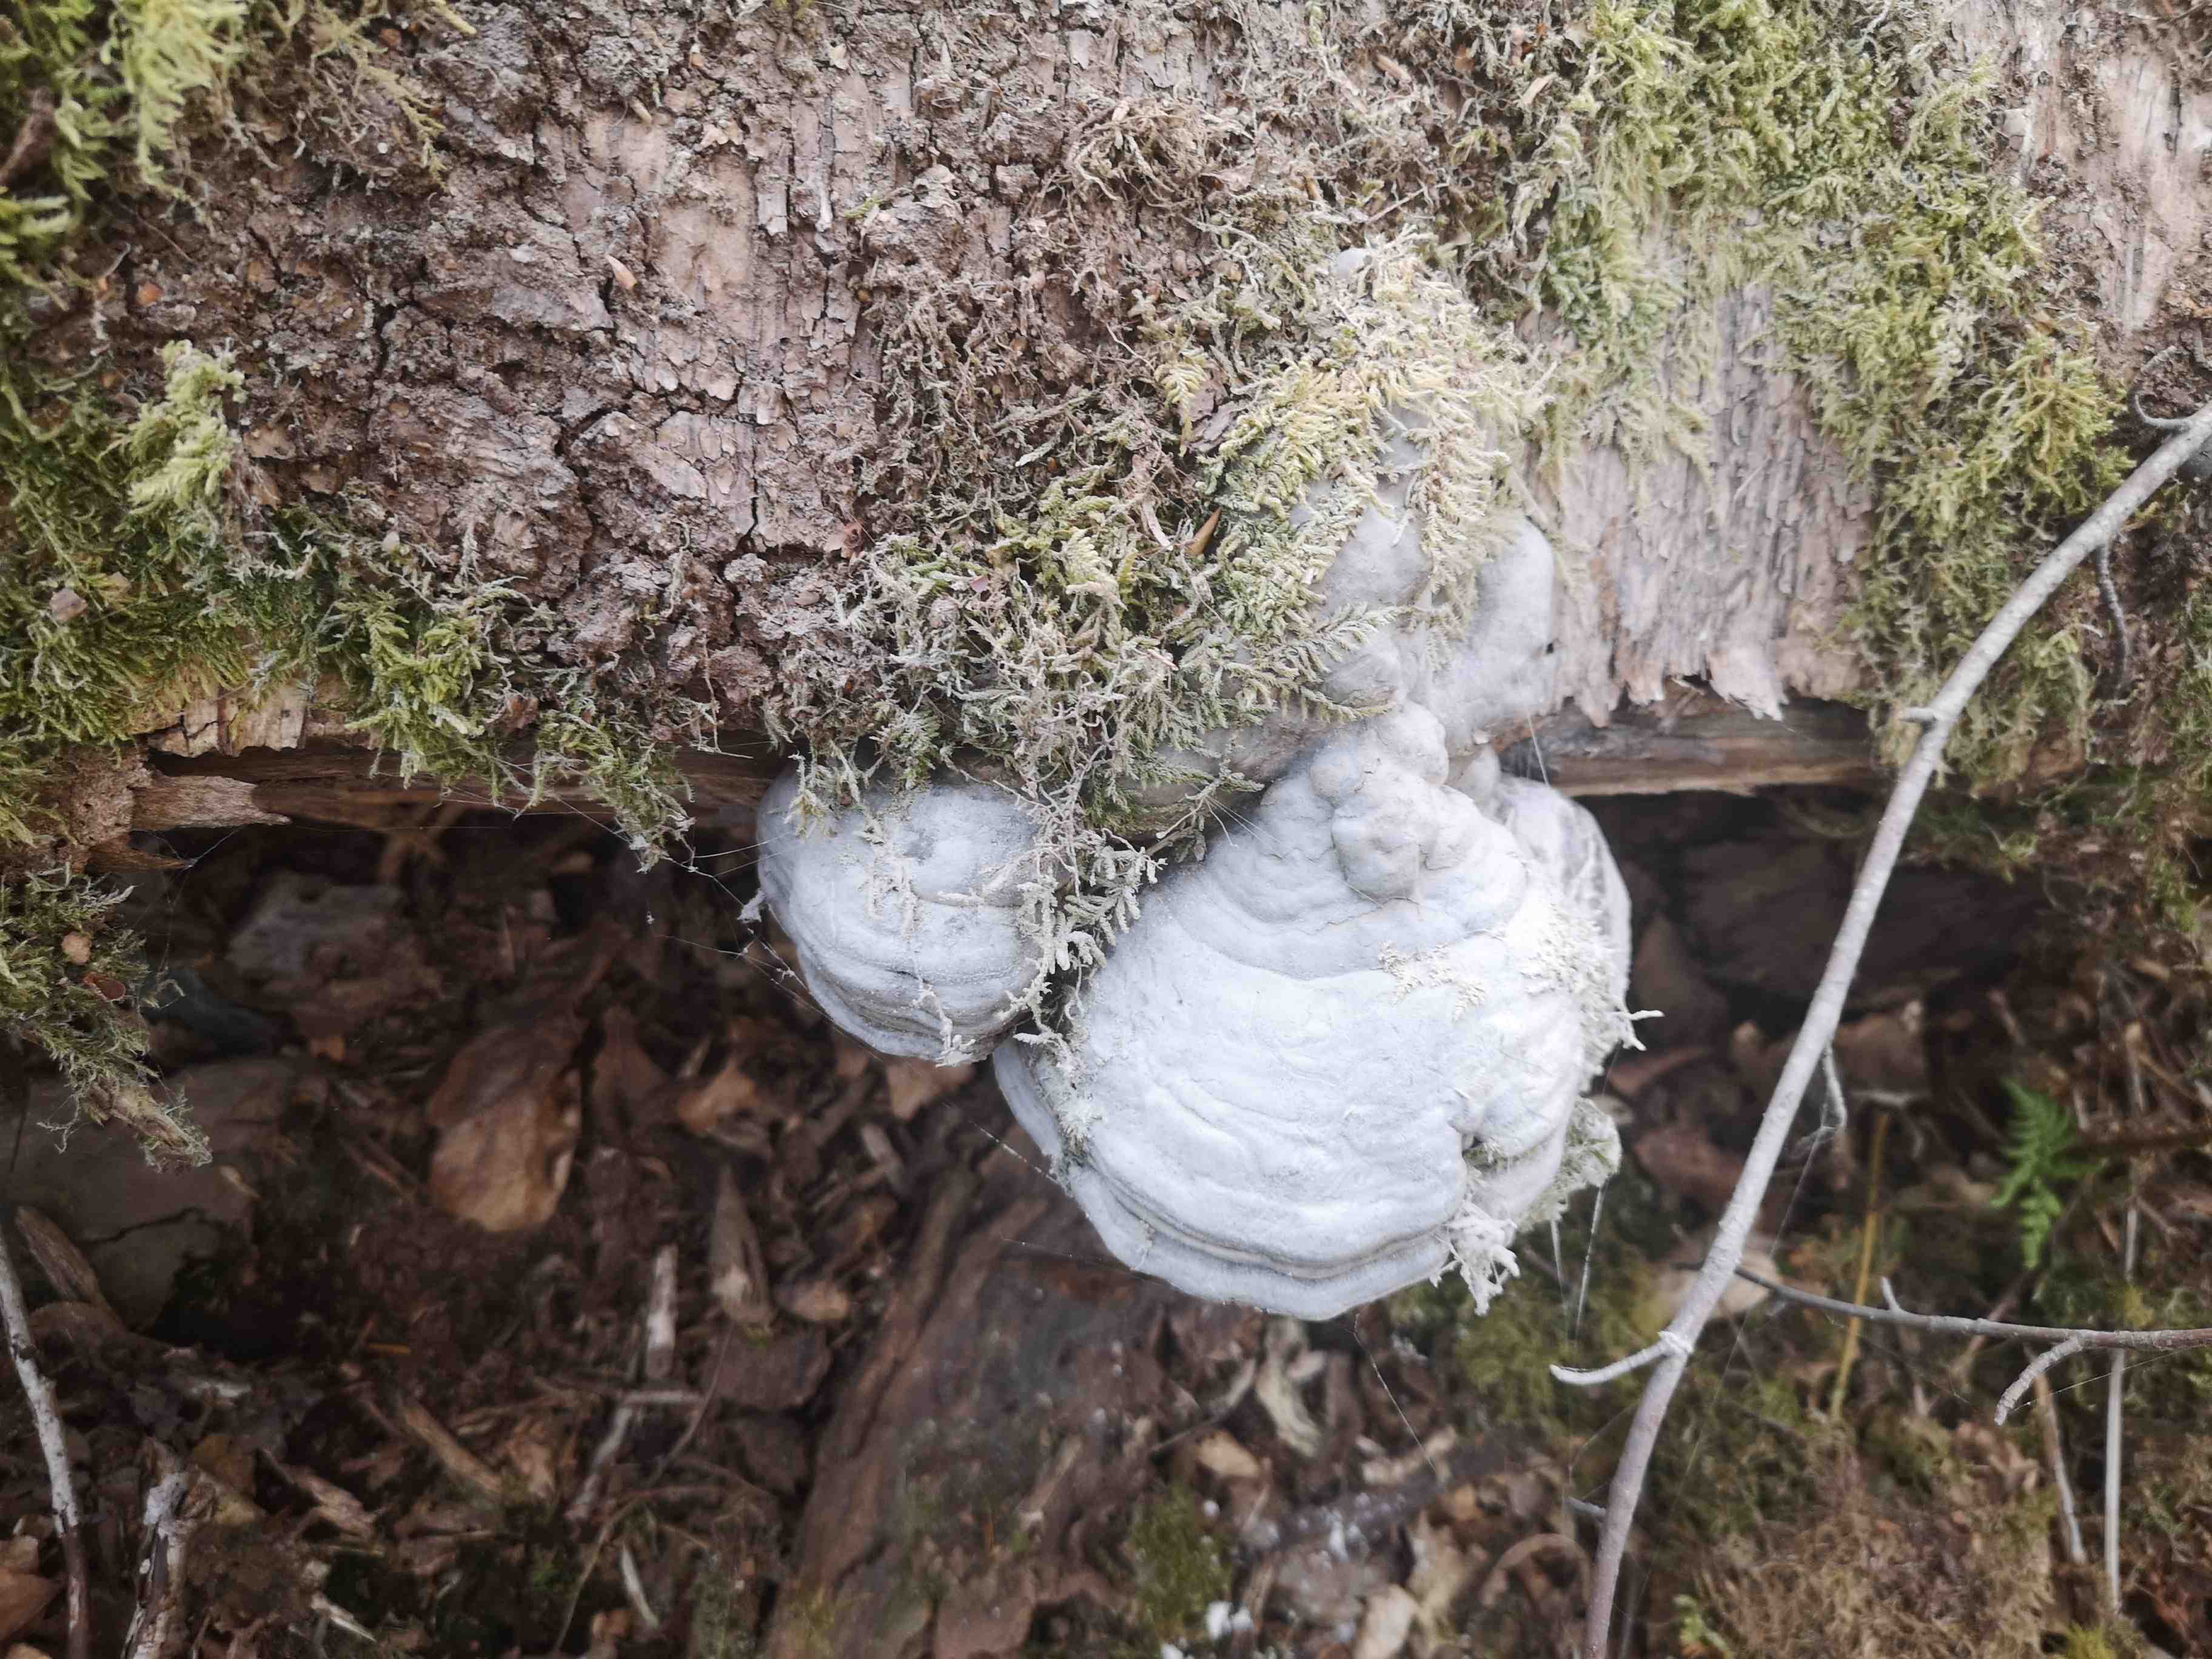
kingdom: Fungi
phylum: Basidiomycota
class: Agaricomycetes
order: Polyporales
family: Polyporaceae
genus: Fomes
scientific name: Fomes fomentarius
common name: tøndersvamp
